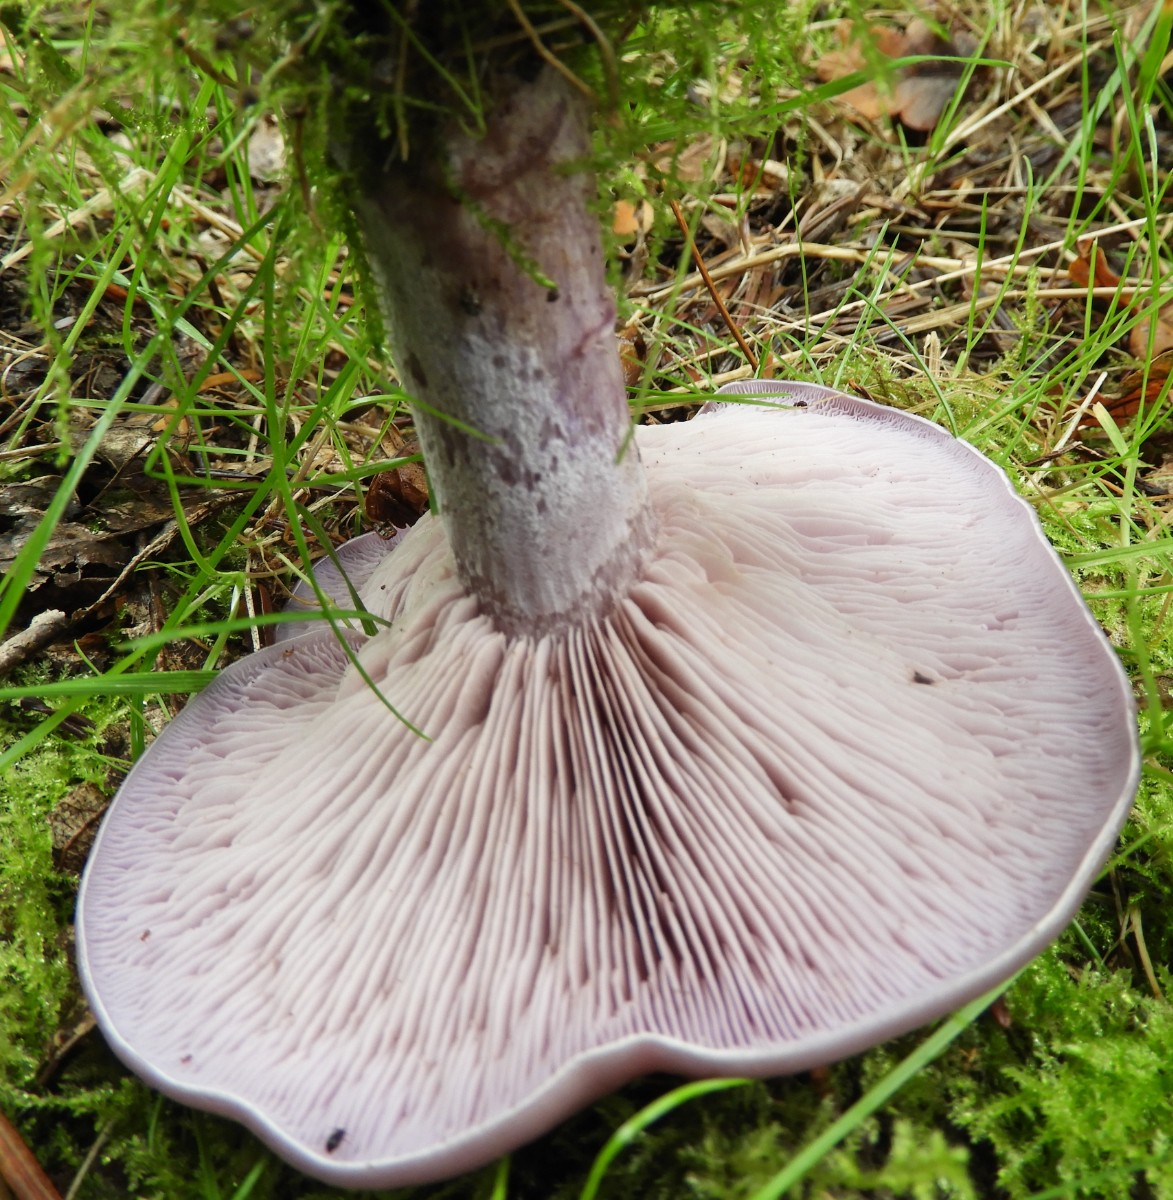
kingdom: Fungi
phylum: Basidiomycota
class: Agaricomycetes
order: Agaricales
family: Tricholomataceae
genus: Lepista
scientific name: Lepista nuda
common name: violet hekseringshat
